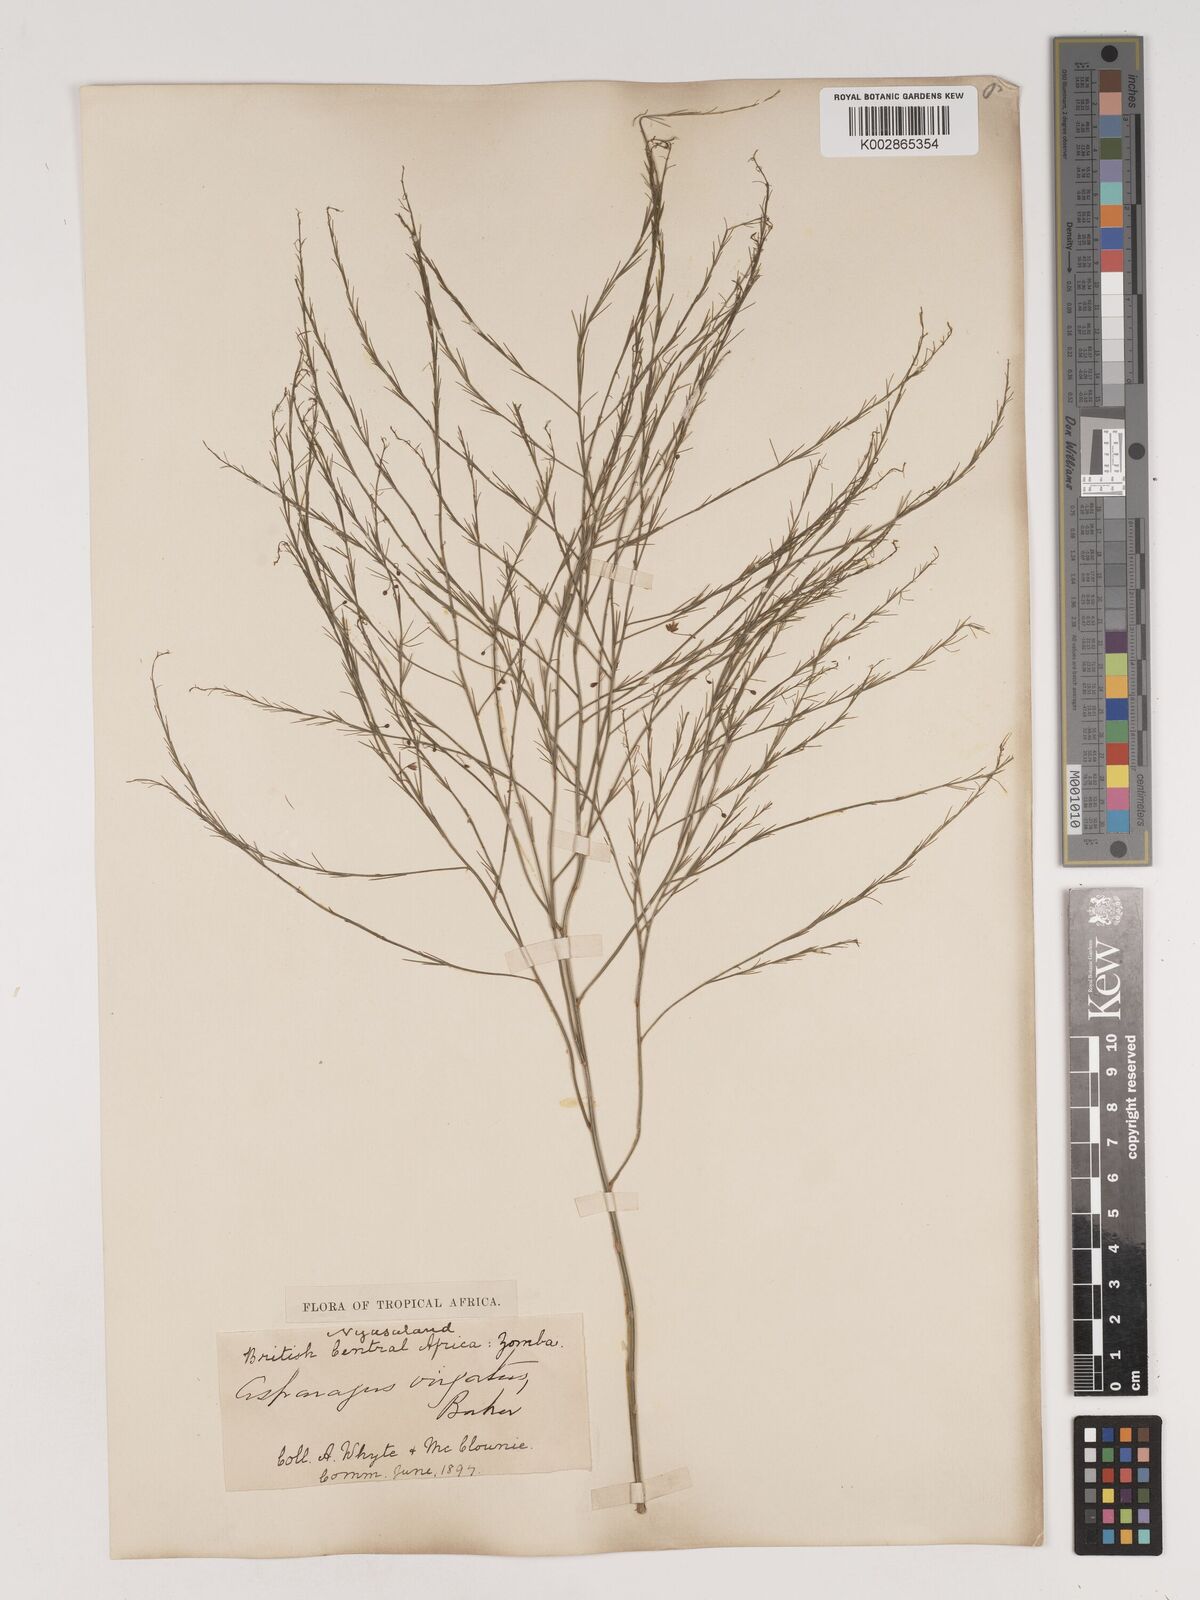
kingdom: Plantae
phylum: Tracheophyta
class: Liliopsida
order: Asparagales
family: Asparagaceae
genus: Asparagus
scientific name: Asparagus virgatus
